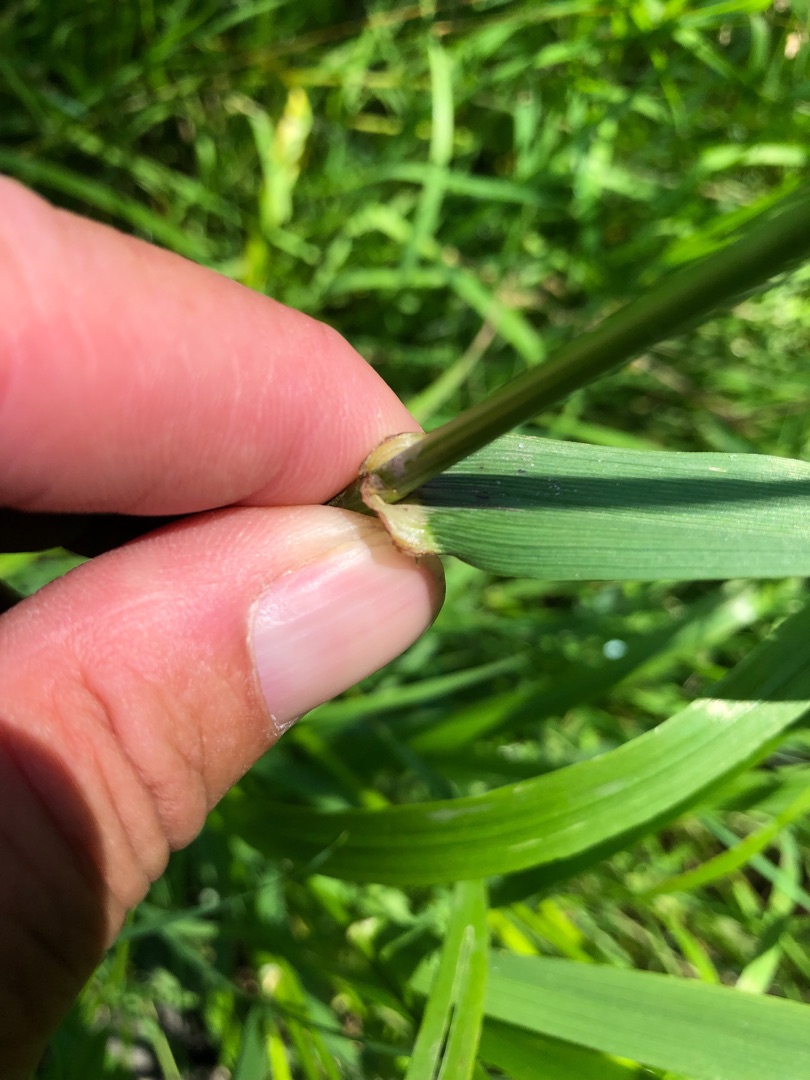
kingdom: Plantae
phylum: Tracheophyta
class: Liliopsida
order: Poales
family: Poaceae
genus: Lolium
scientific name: Lolium giganteum
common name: Kæmpe-svingel
